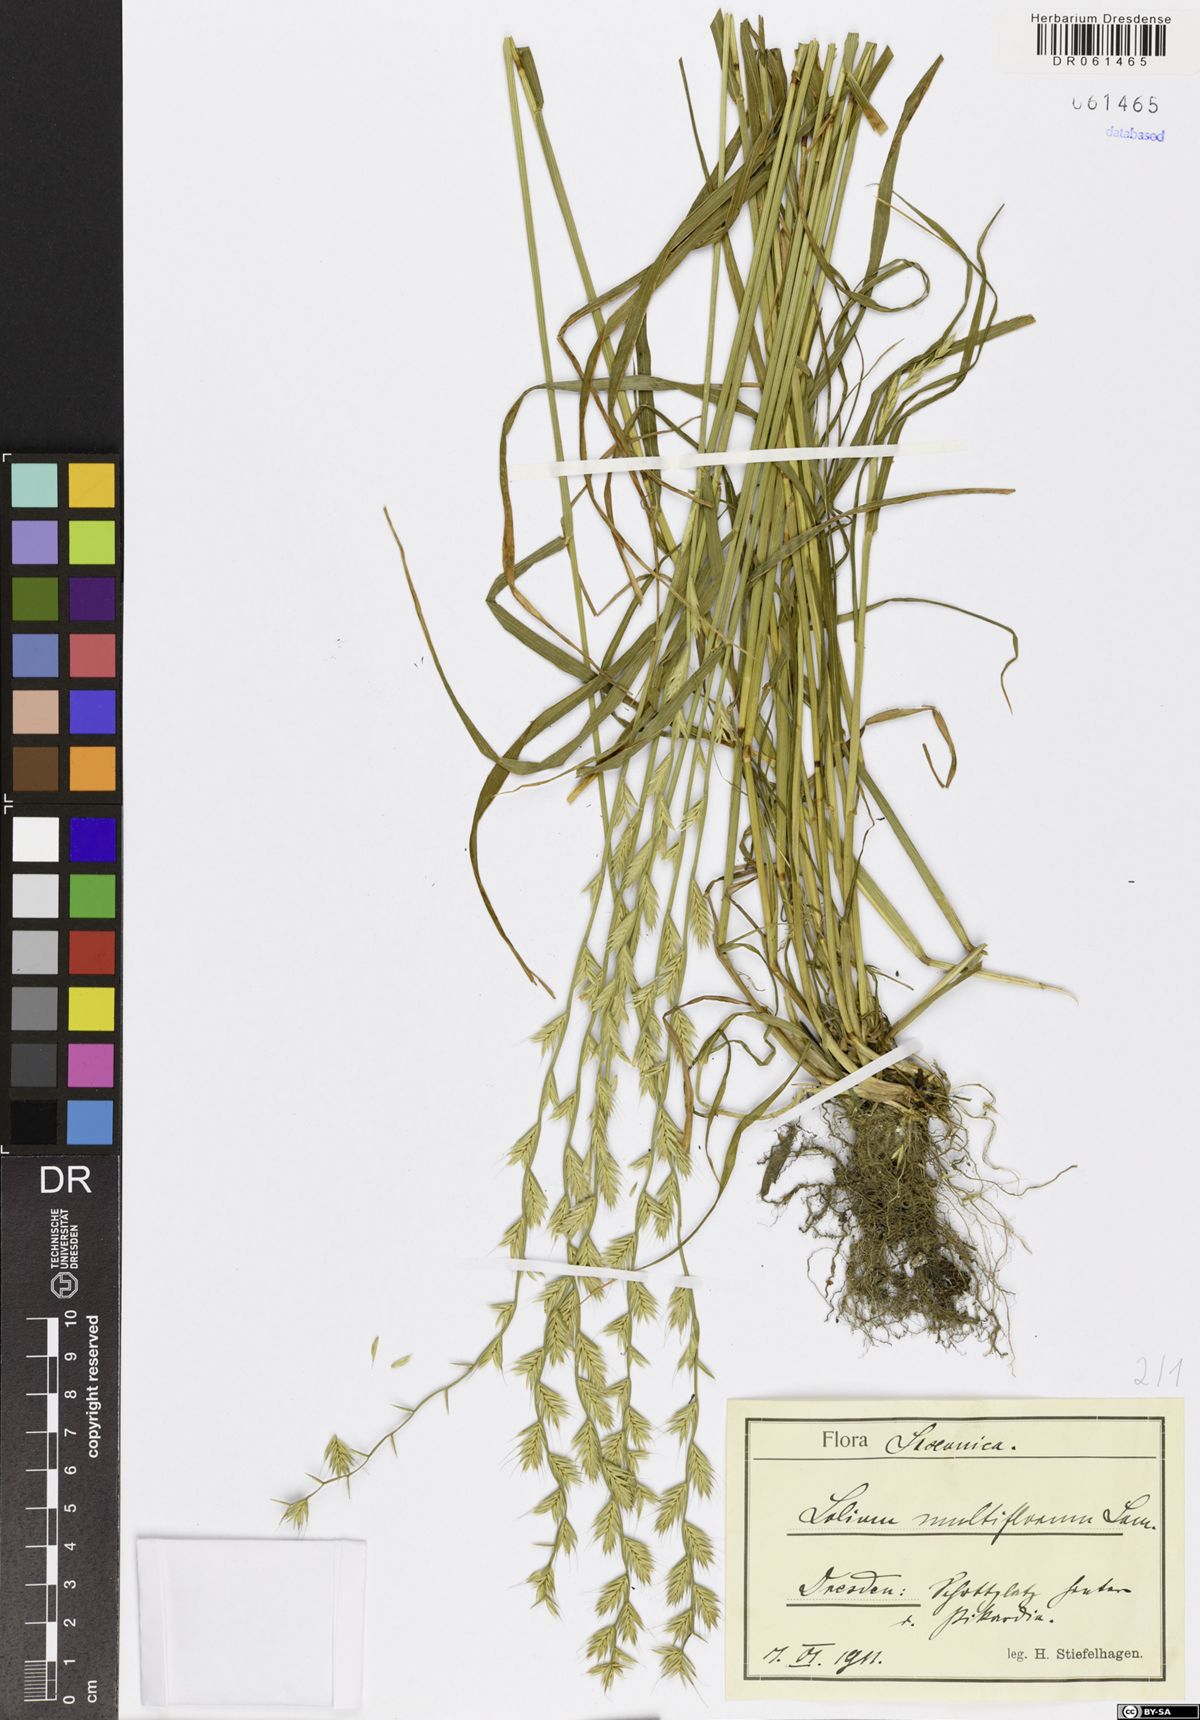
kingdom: Plantae
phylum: Tracheophyta
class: Liliopsida
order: Poales
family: Poaceae
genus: Lolium
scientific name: Lolium multiflorum
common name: Annual ryegrass
